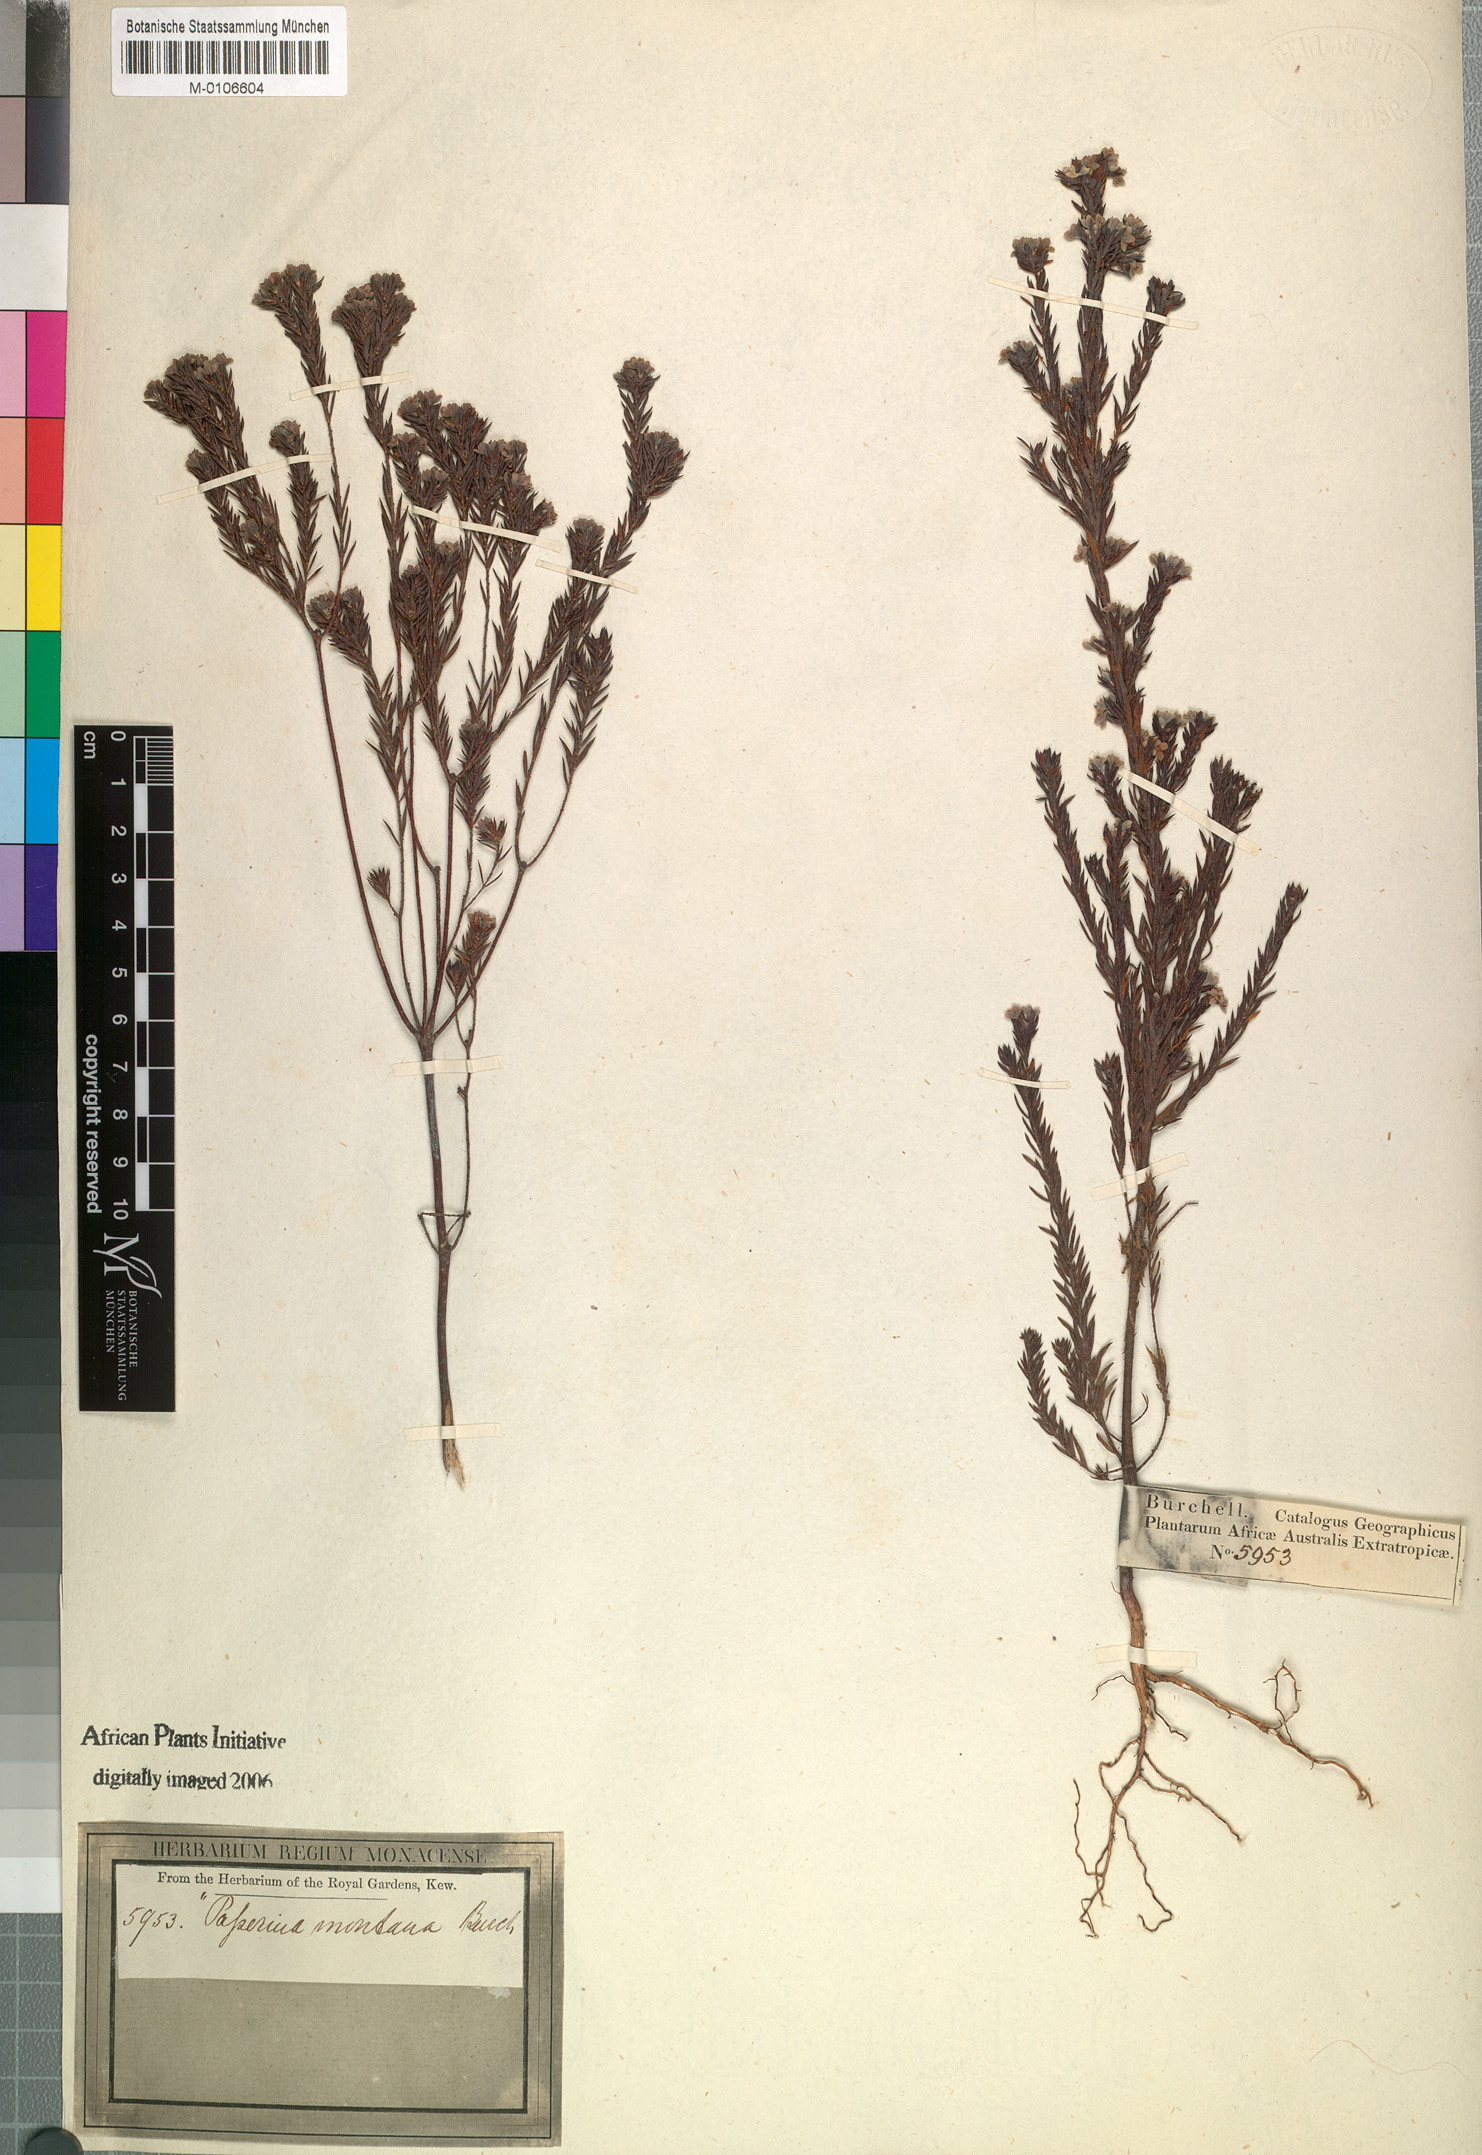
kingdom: Plantae
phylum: Tracheophyta
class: Magnoliopsida
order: Malvales
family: Thymelaeaceae
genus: Lachnaea
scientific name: Lachnaea diosmoides
